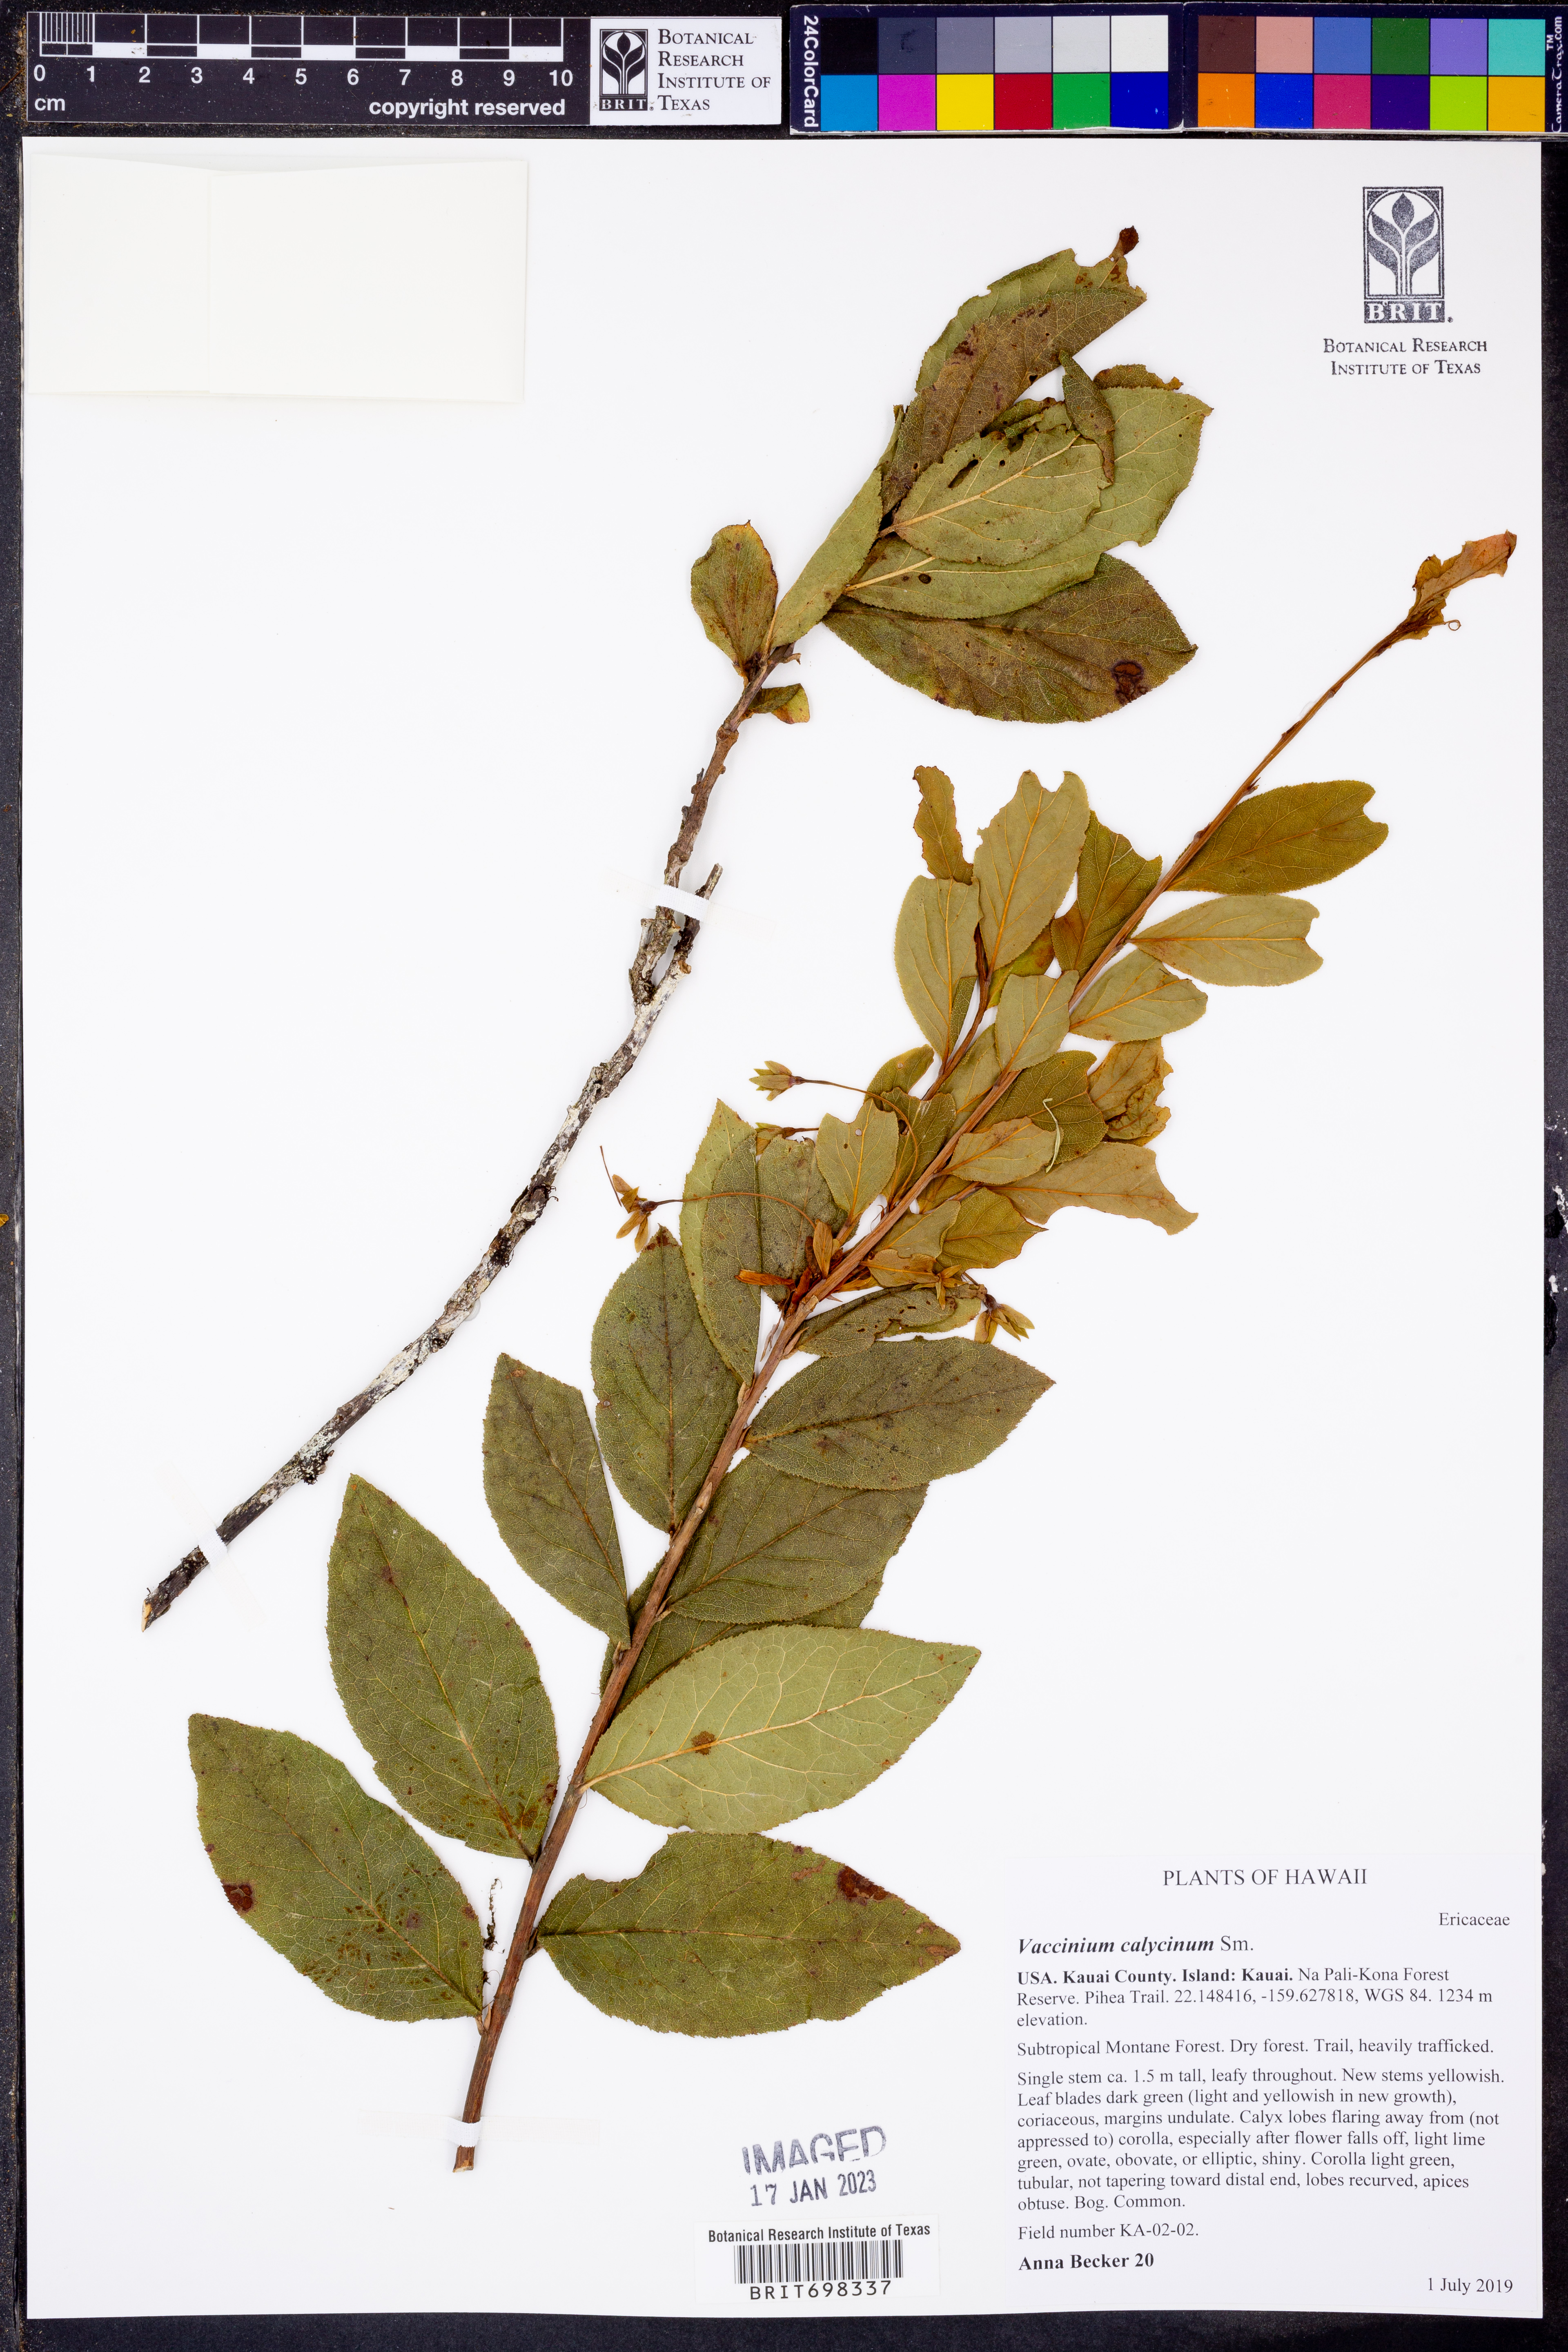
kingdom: Plantae
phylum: Tracheophyta
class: Magnoliopsida
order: Ericales
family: Ericaceae
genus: Vaccinium
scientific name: Vaccinium calycinum
